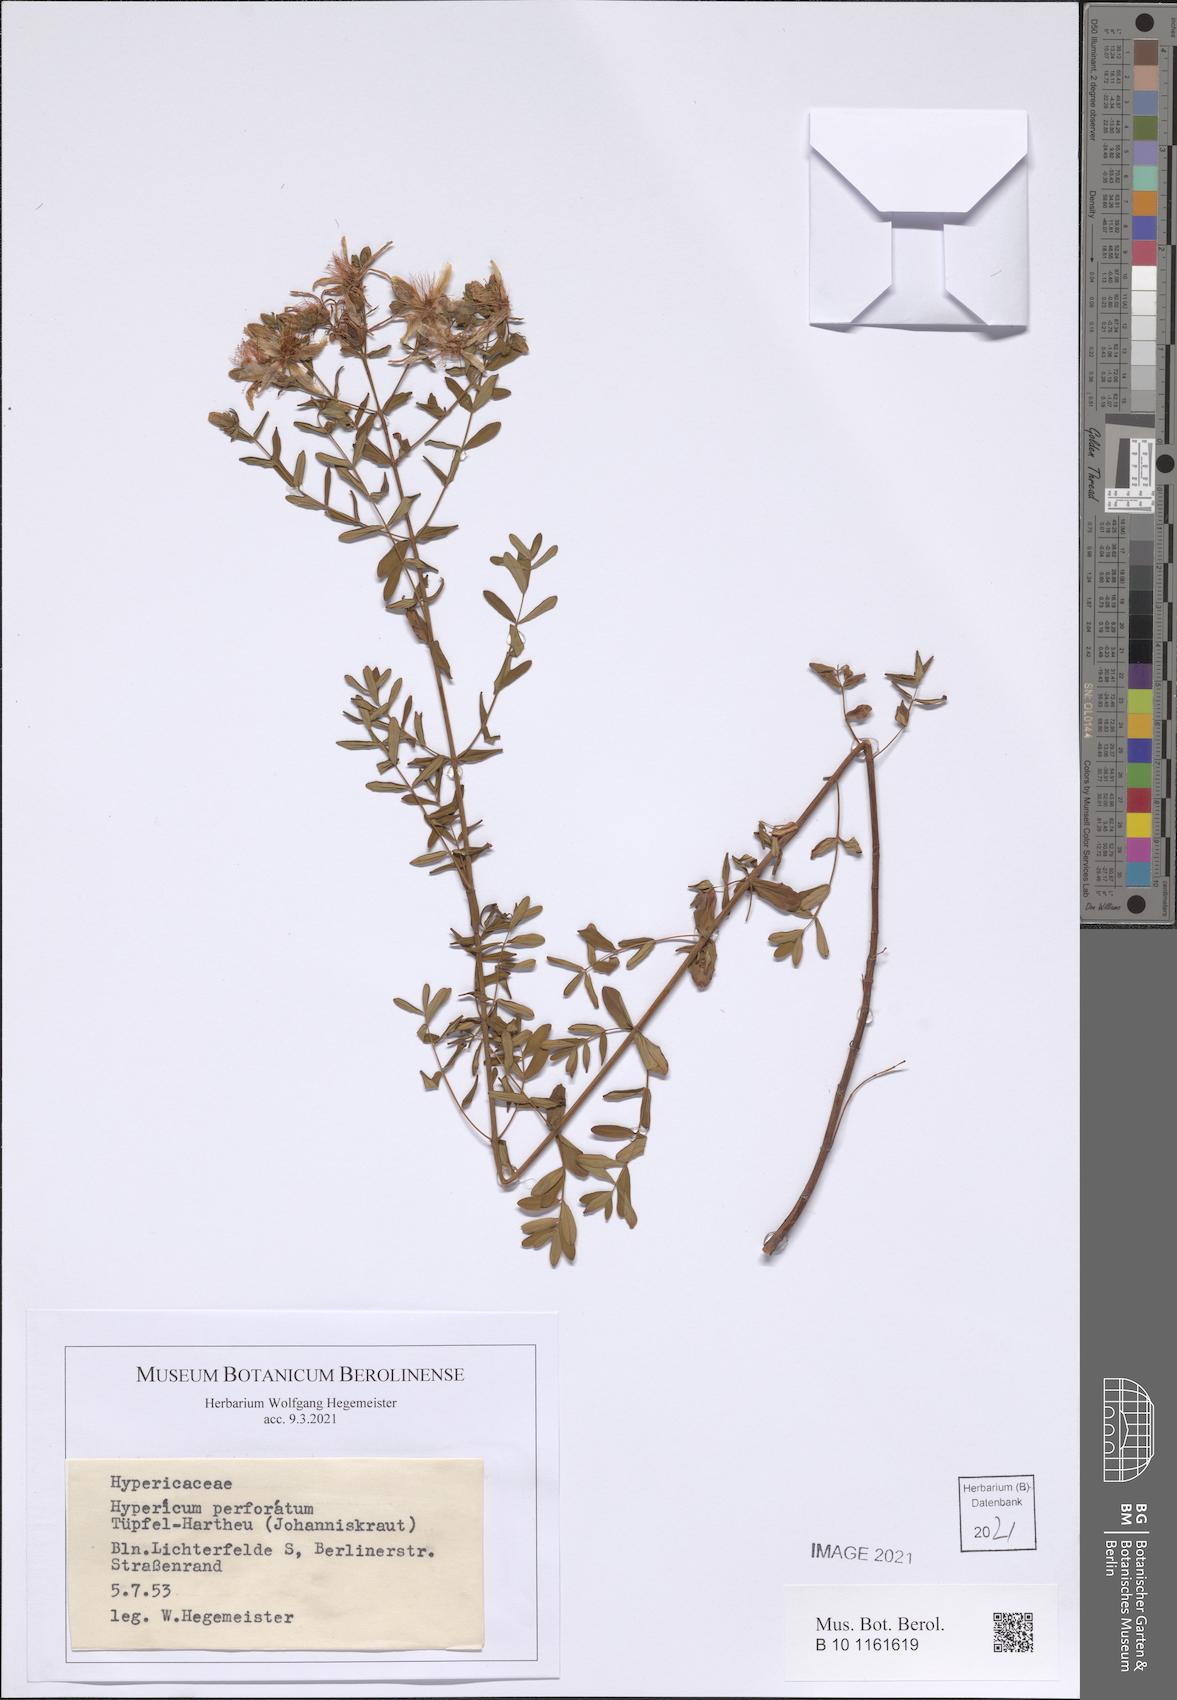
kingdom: Plantae
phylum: Tracheophyta
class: Magnoliopsida
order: Malpighiales
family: Hypericaceae
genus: Hypericum
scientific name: Hypericum perforatum
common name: Common st. johnswort
